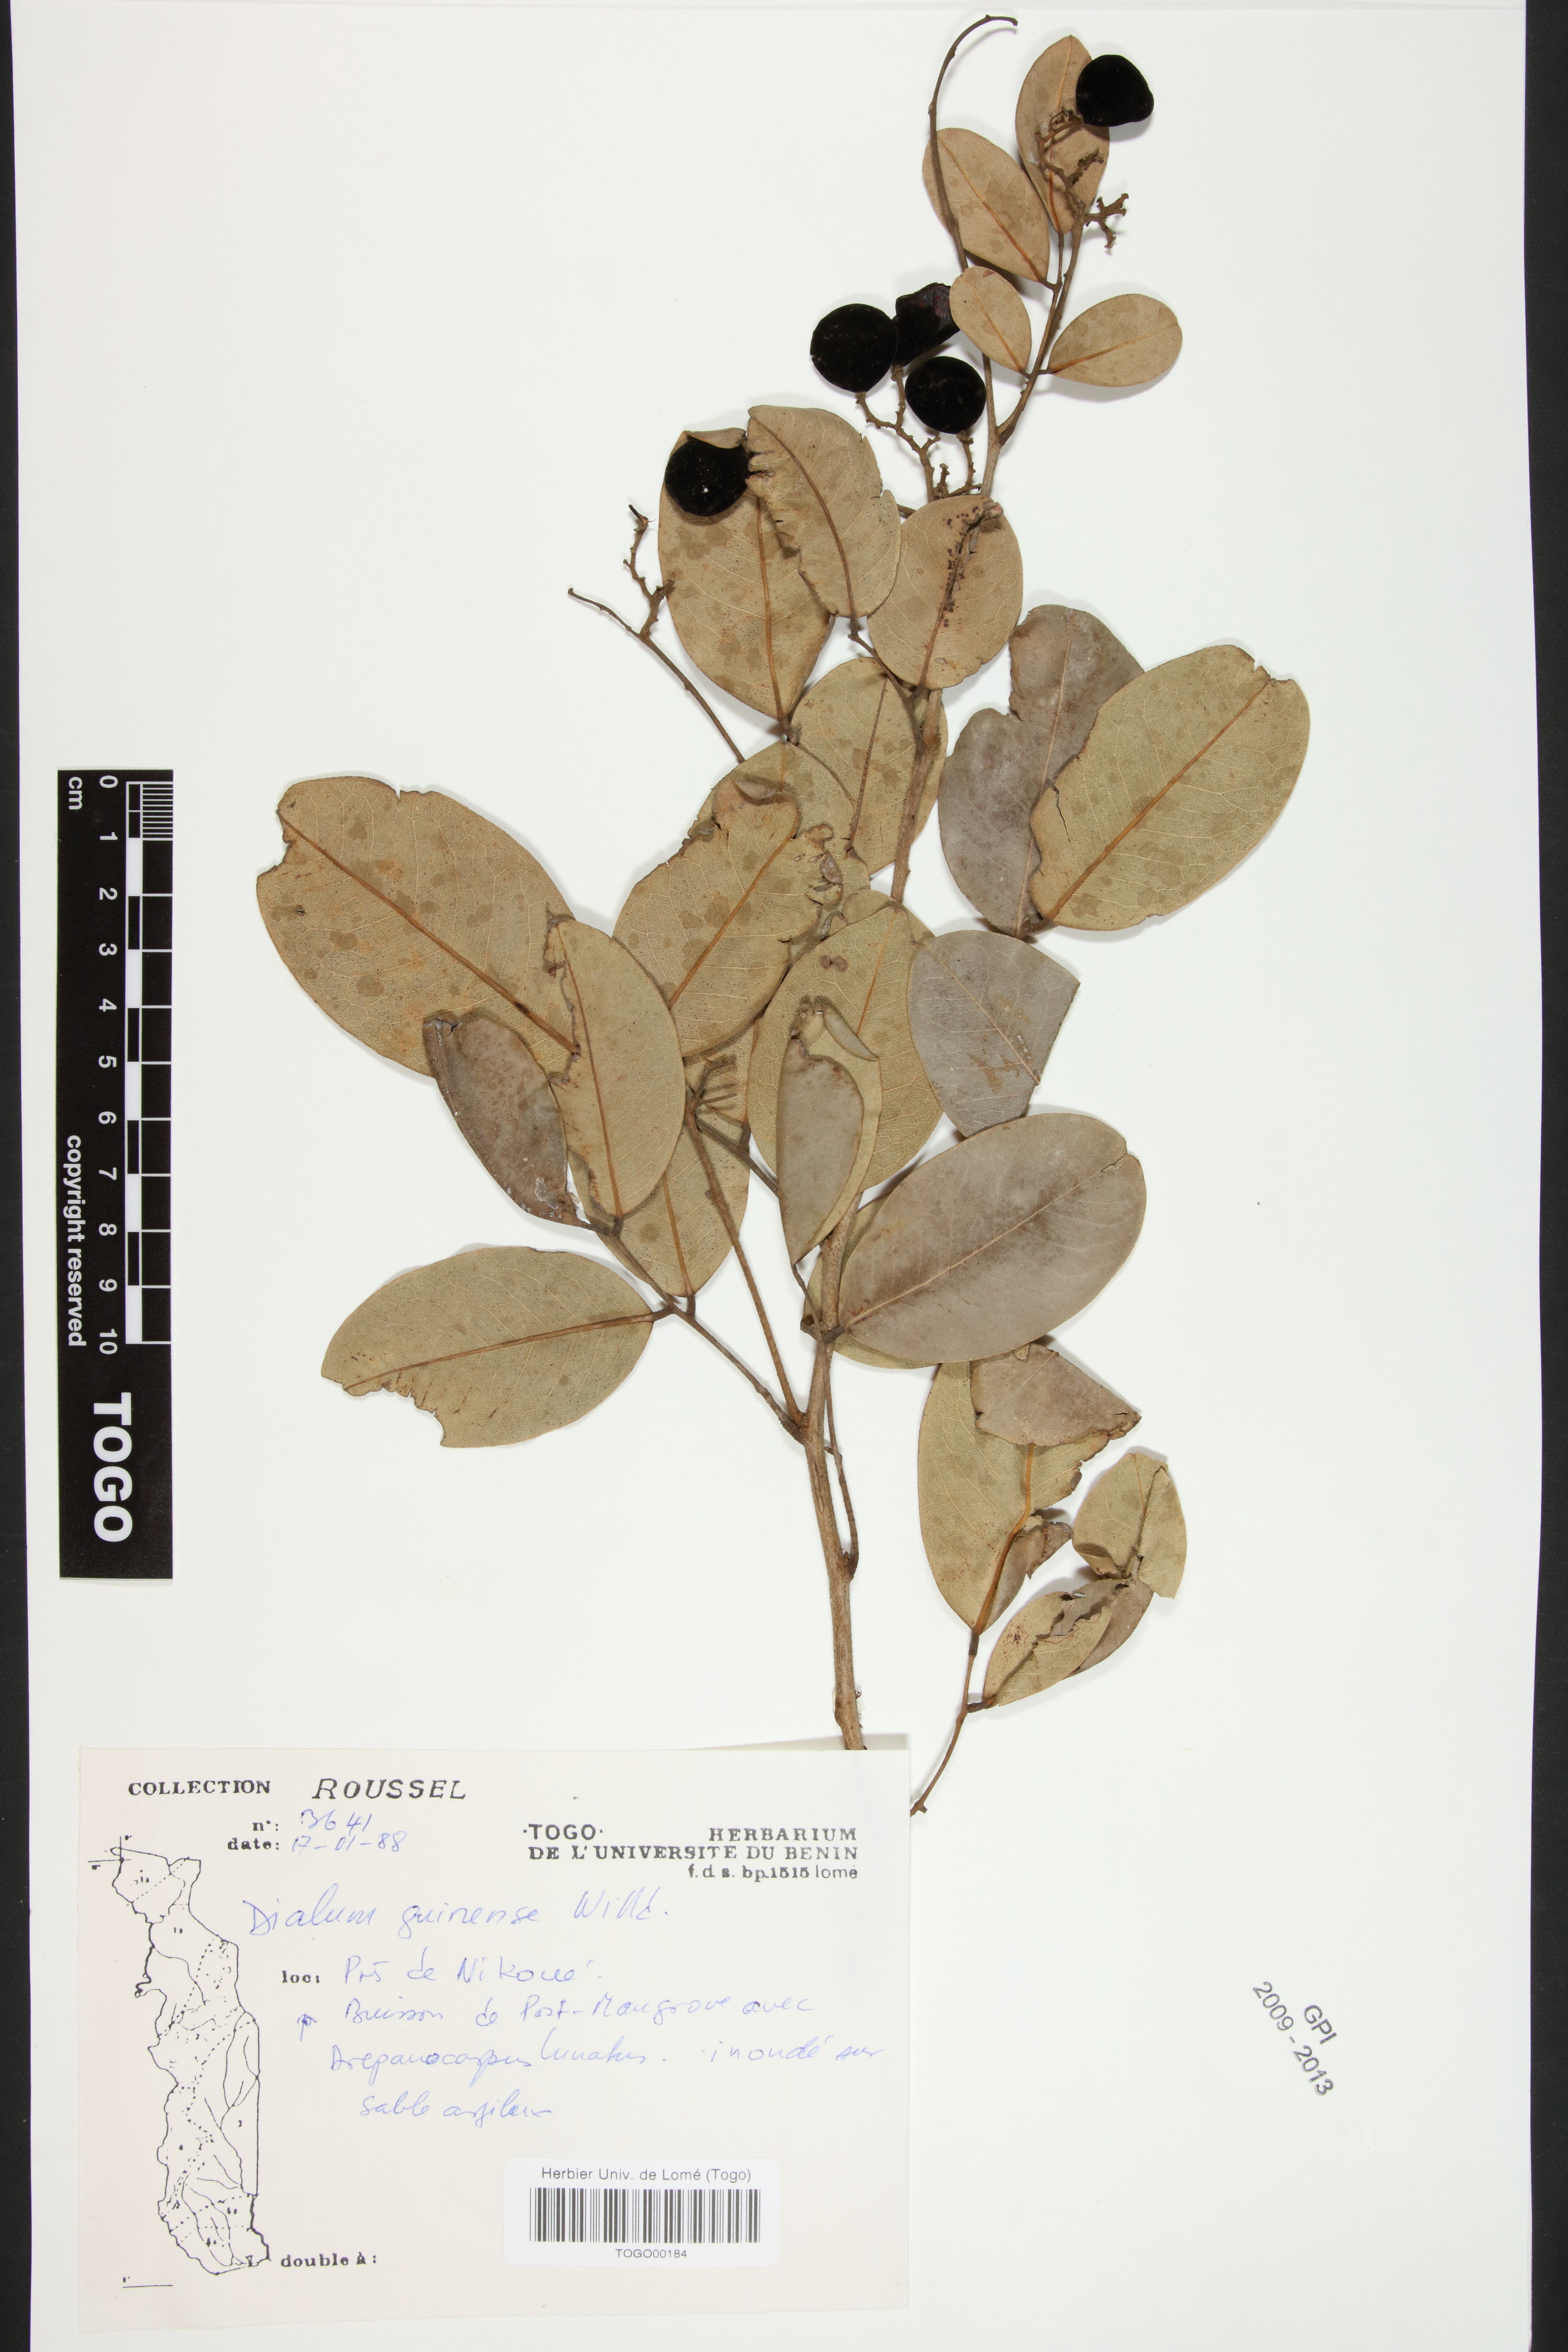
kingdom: Plantae
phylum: Tracheophyta
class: Magnoliopsida
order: Fabales
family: Fabaceae
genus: Dialium
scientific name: Dialium guineense
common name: Sierra leone-tamarind
